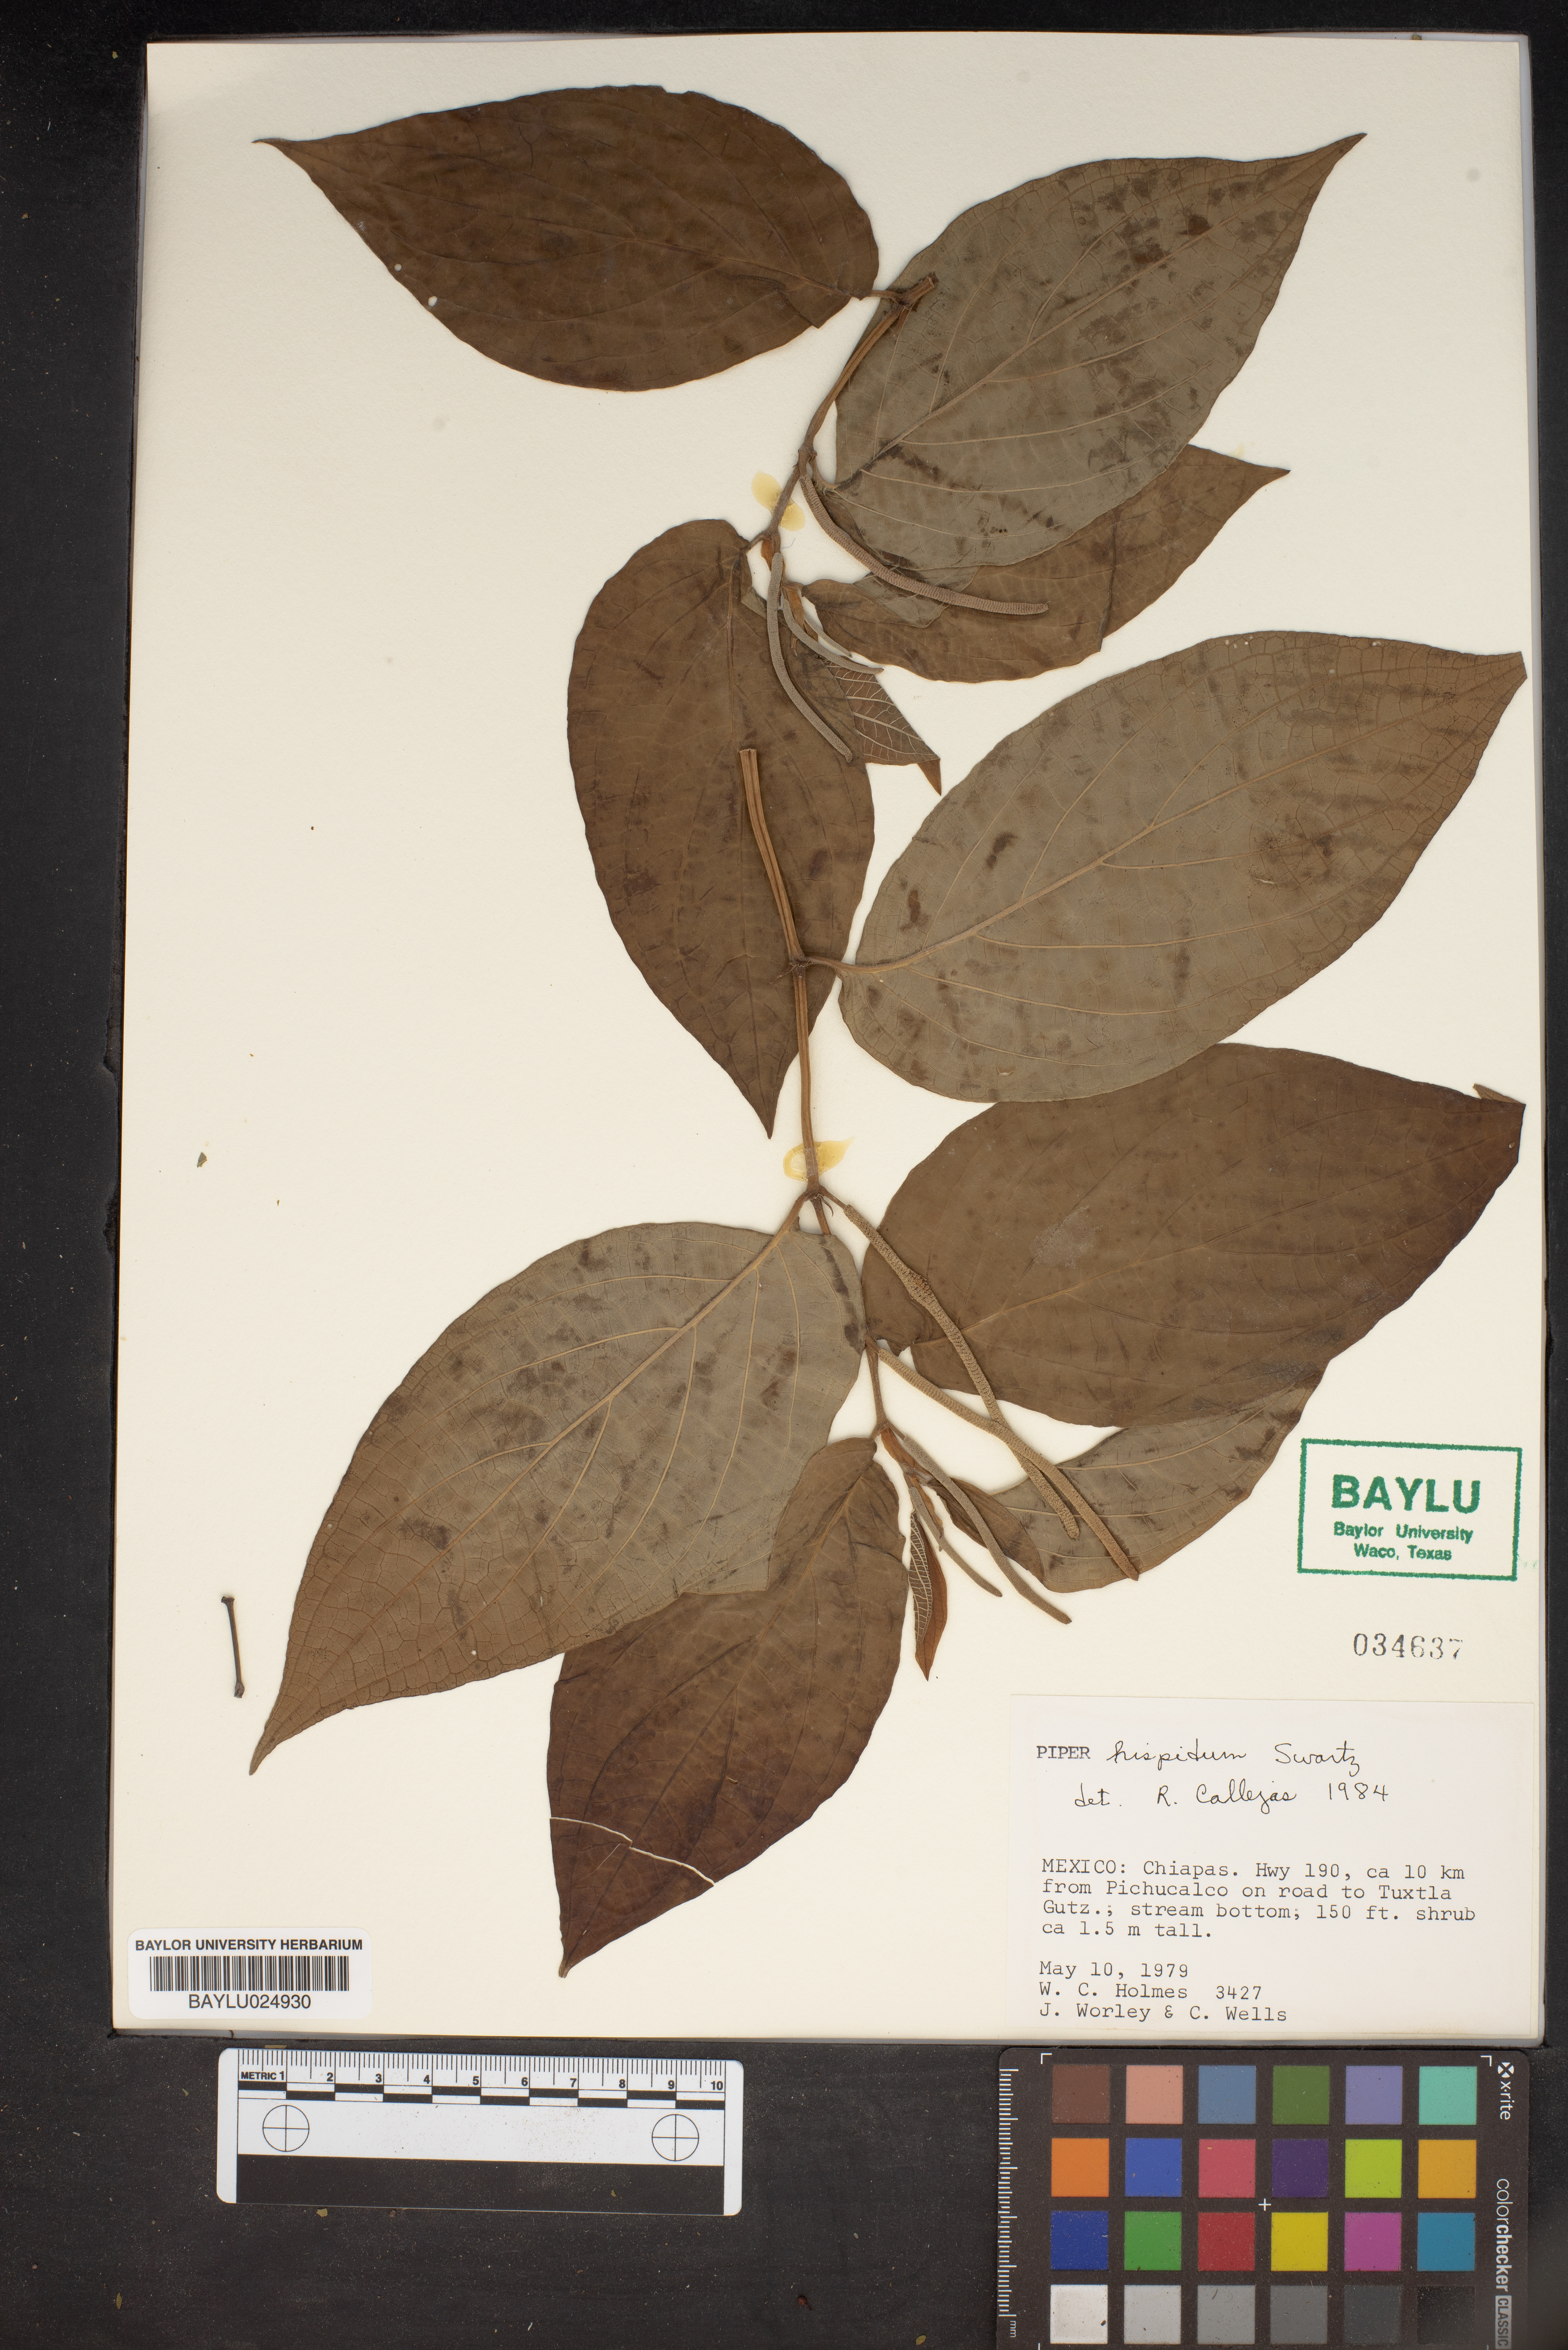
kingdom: Plantae
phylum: Tracheophyta
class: Magnoliopsida
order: Piperales
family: Piperaceae
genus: Piper
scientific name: Piper hispidum
